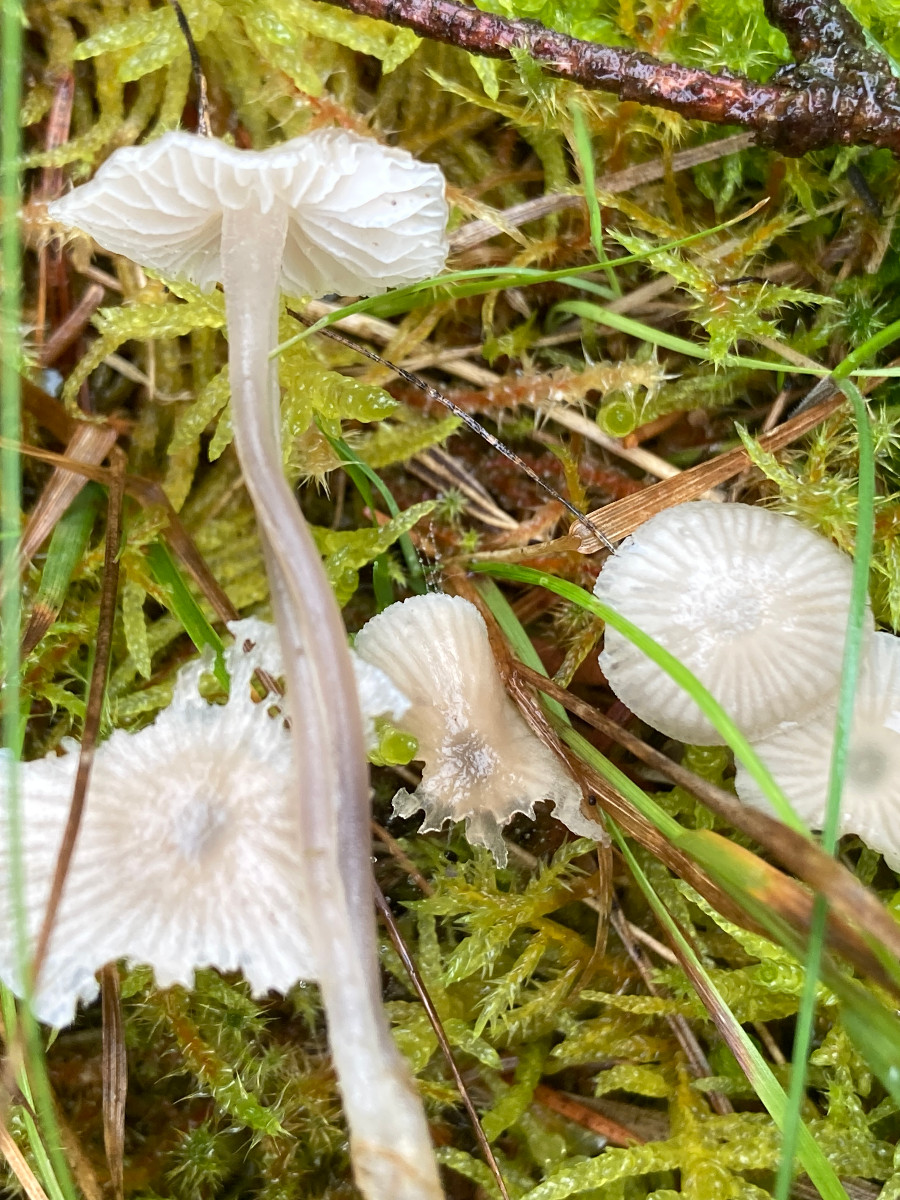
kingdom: Fungi
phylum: Basidiomycota
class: Agaricomycetes
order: Agaricales
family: Mycenaceae
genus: Mycena
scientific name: Mycena
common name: huesvamp
